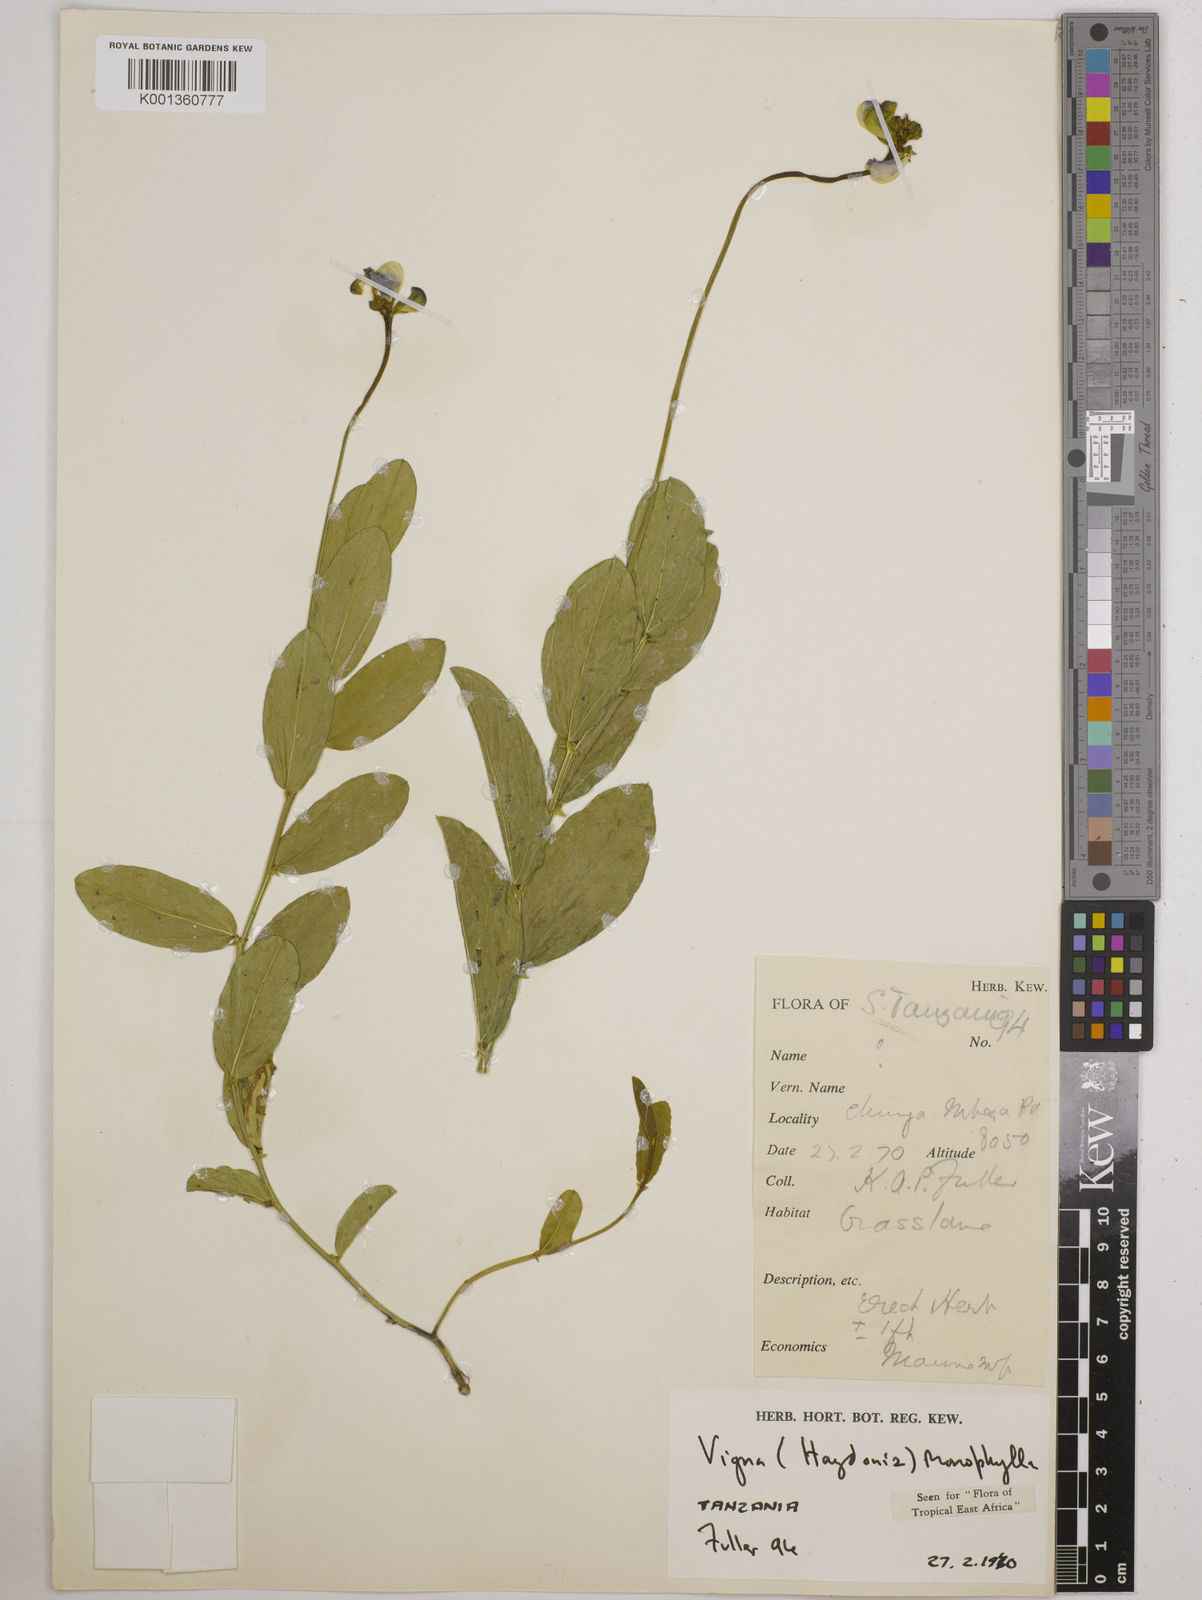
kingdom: Plantae
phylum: Tracheophyta
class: Magnoliopsida
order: Fabales
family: Fabaceae
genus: Vigna
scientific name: Vigna monophylla
